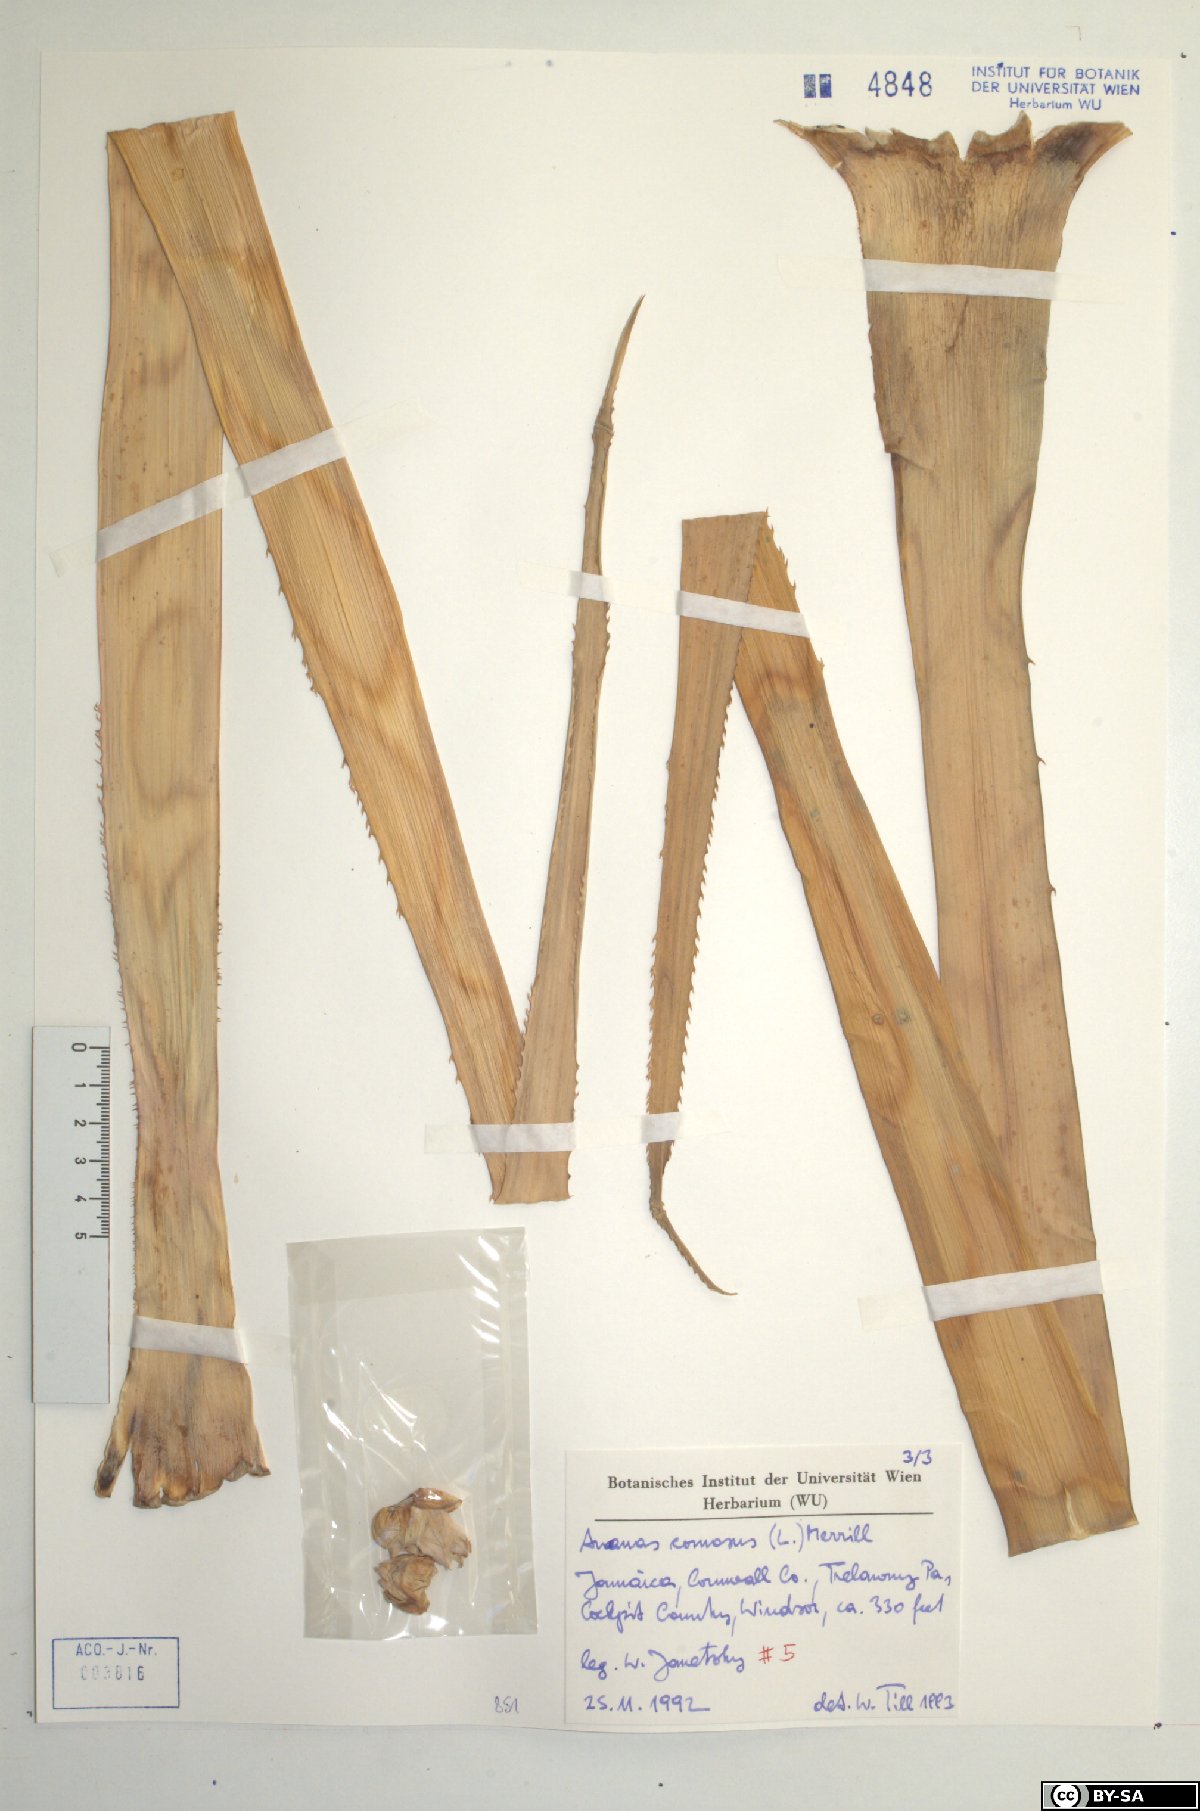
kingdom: Plantae
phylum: Tracheophyta
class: Liliopsida
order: Poales
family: Bromeliaceae
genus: Ananas
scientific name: Ananas comosus
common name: Pineapple
